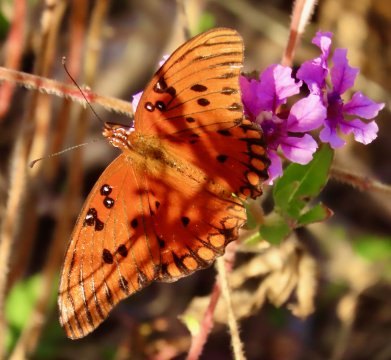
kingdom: Animalia
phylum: Arthropoda
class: Insecta
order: Lepidoptera
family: Nymphalidae
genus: Dione
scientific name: Dione vanillae
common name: Gulf Fritillary
